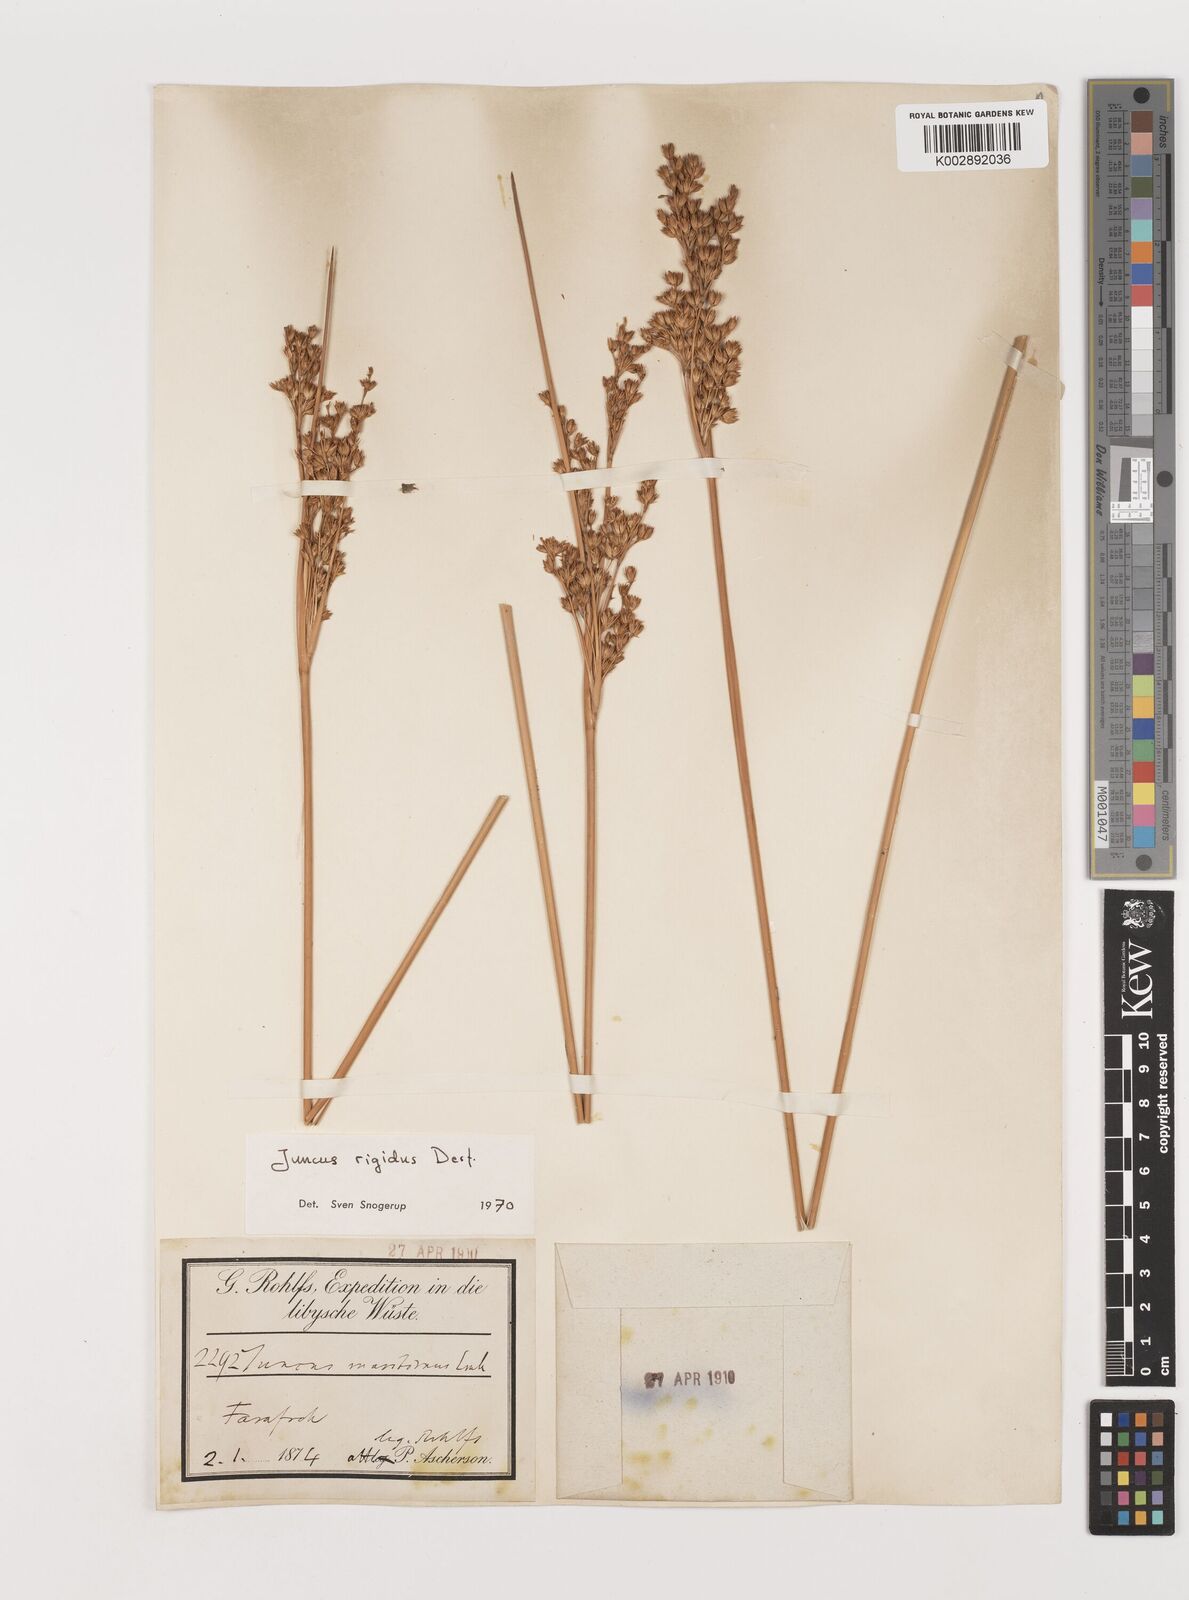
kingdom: Plantae
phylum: Tracheophyta
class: Liliopsida
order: Poales
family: Juncaceae
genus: Juncus
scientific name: Juncus rigidus
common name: Hard sea rush
